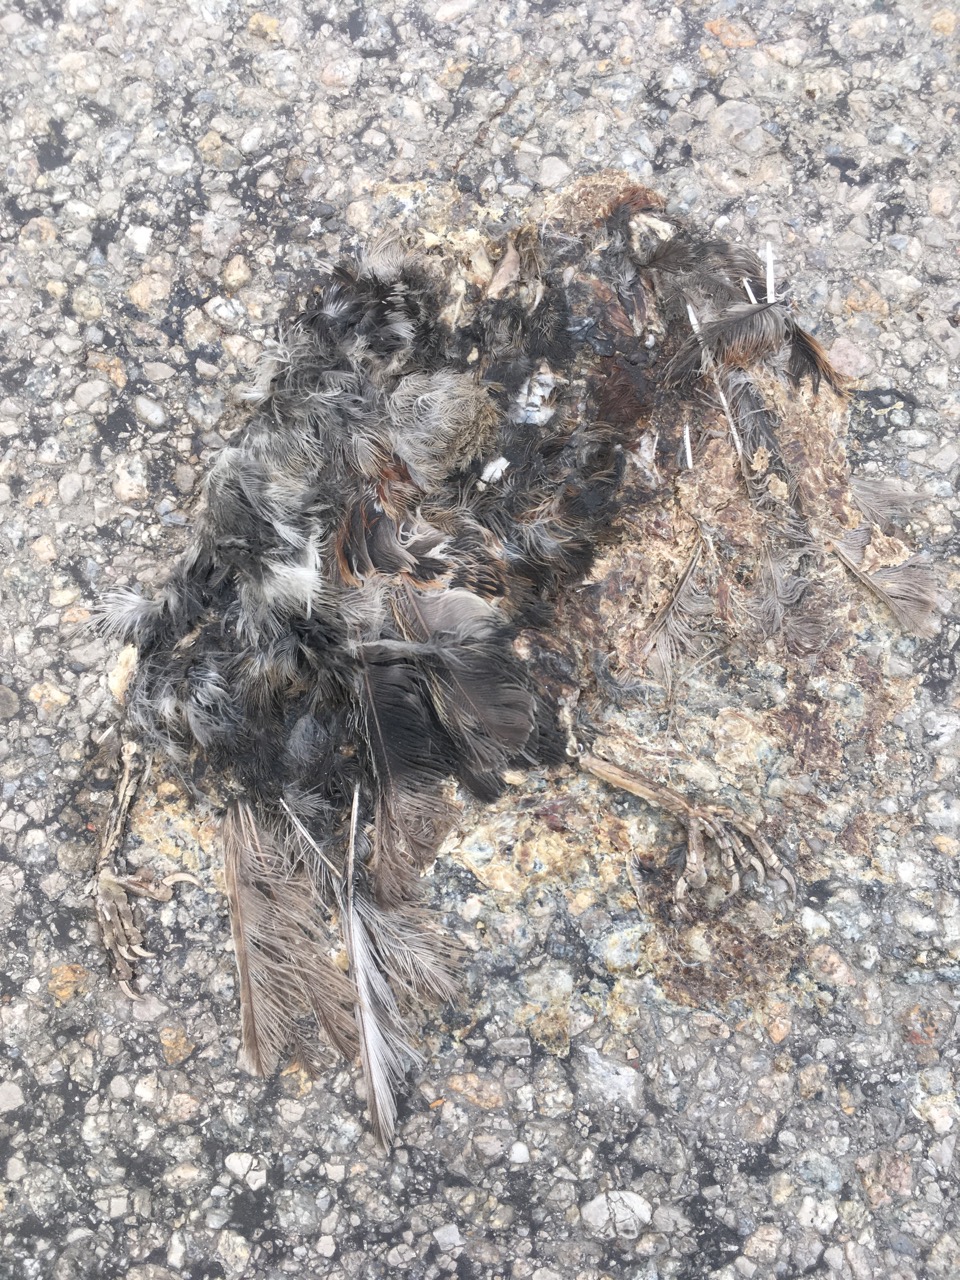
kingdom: Animalia
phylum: Chordata
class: Aves
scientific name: Aves
